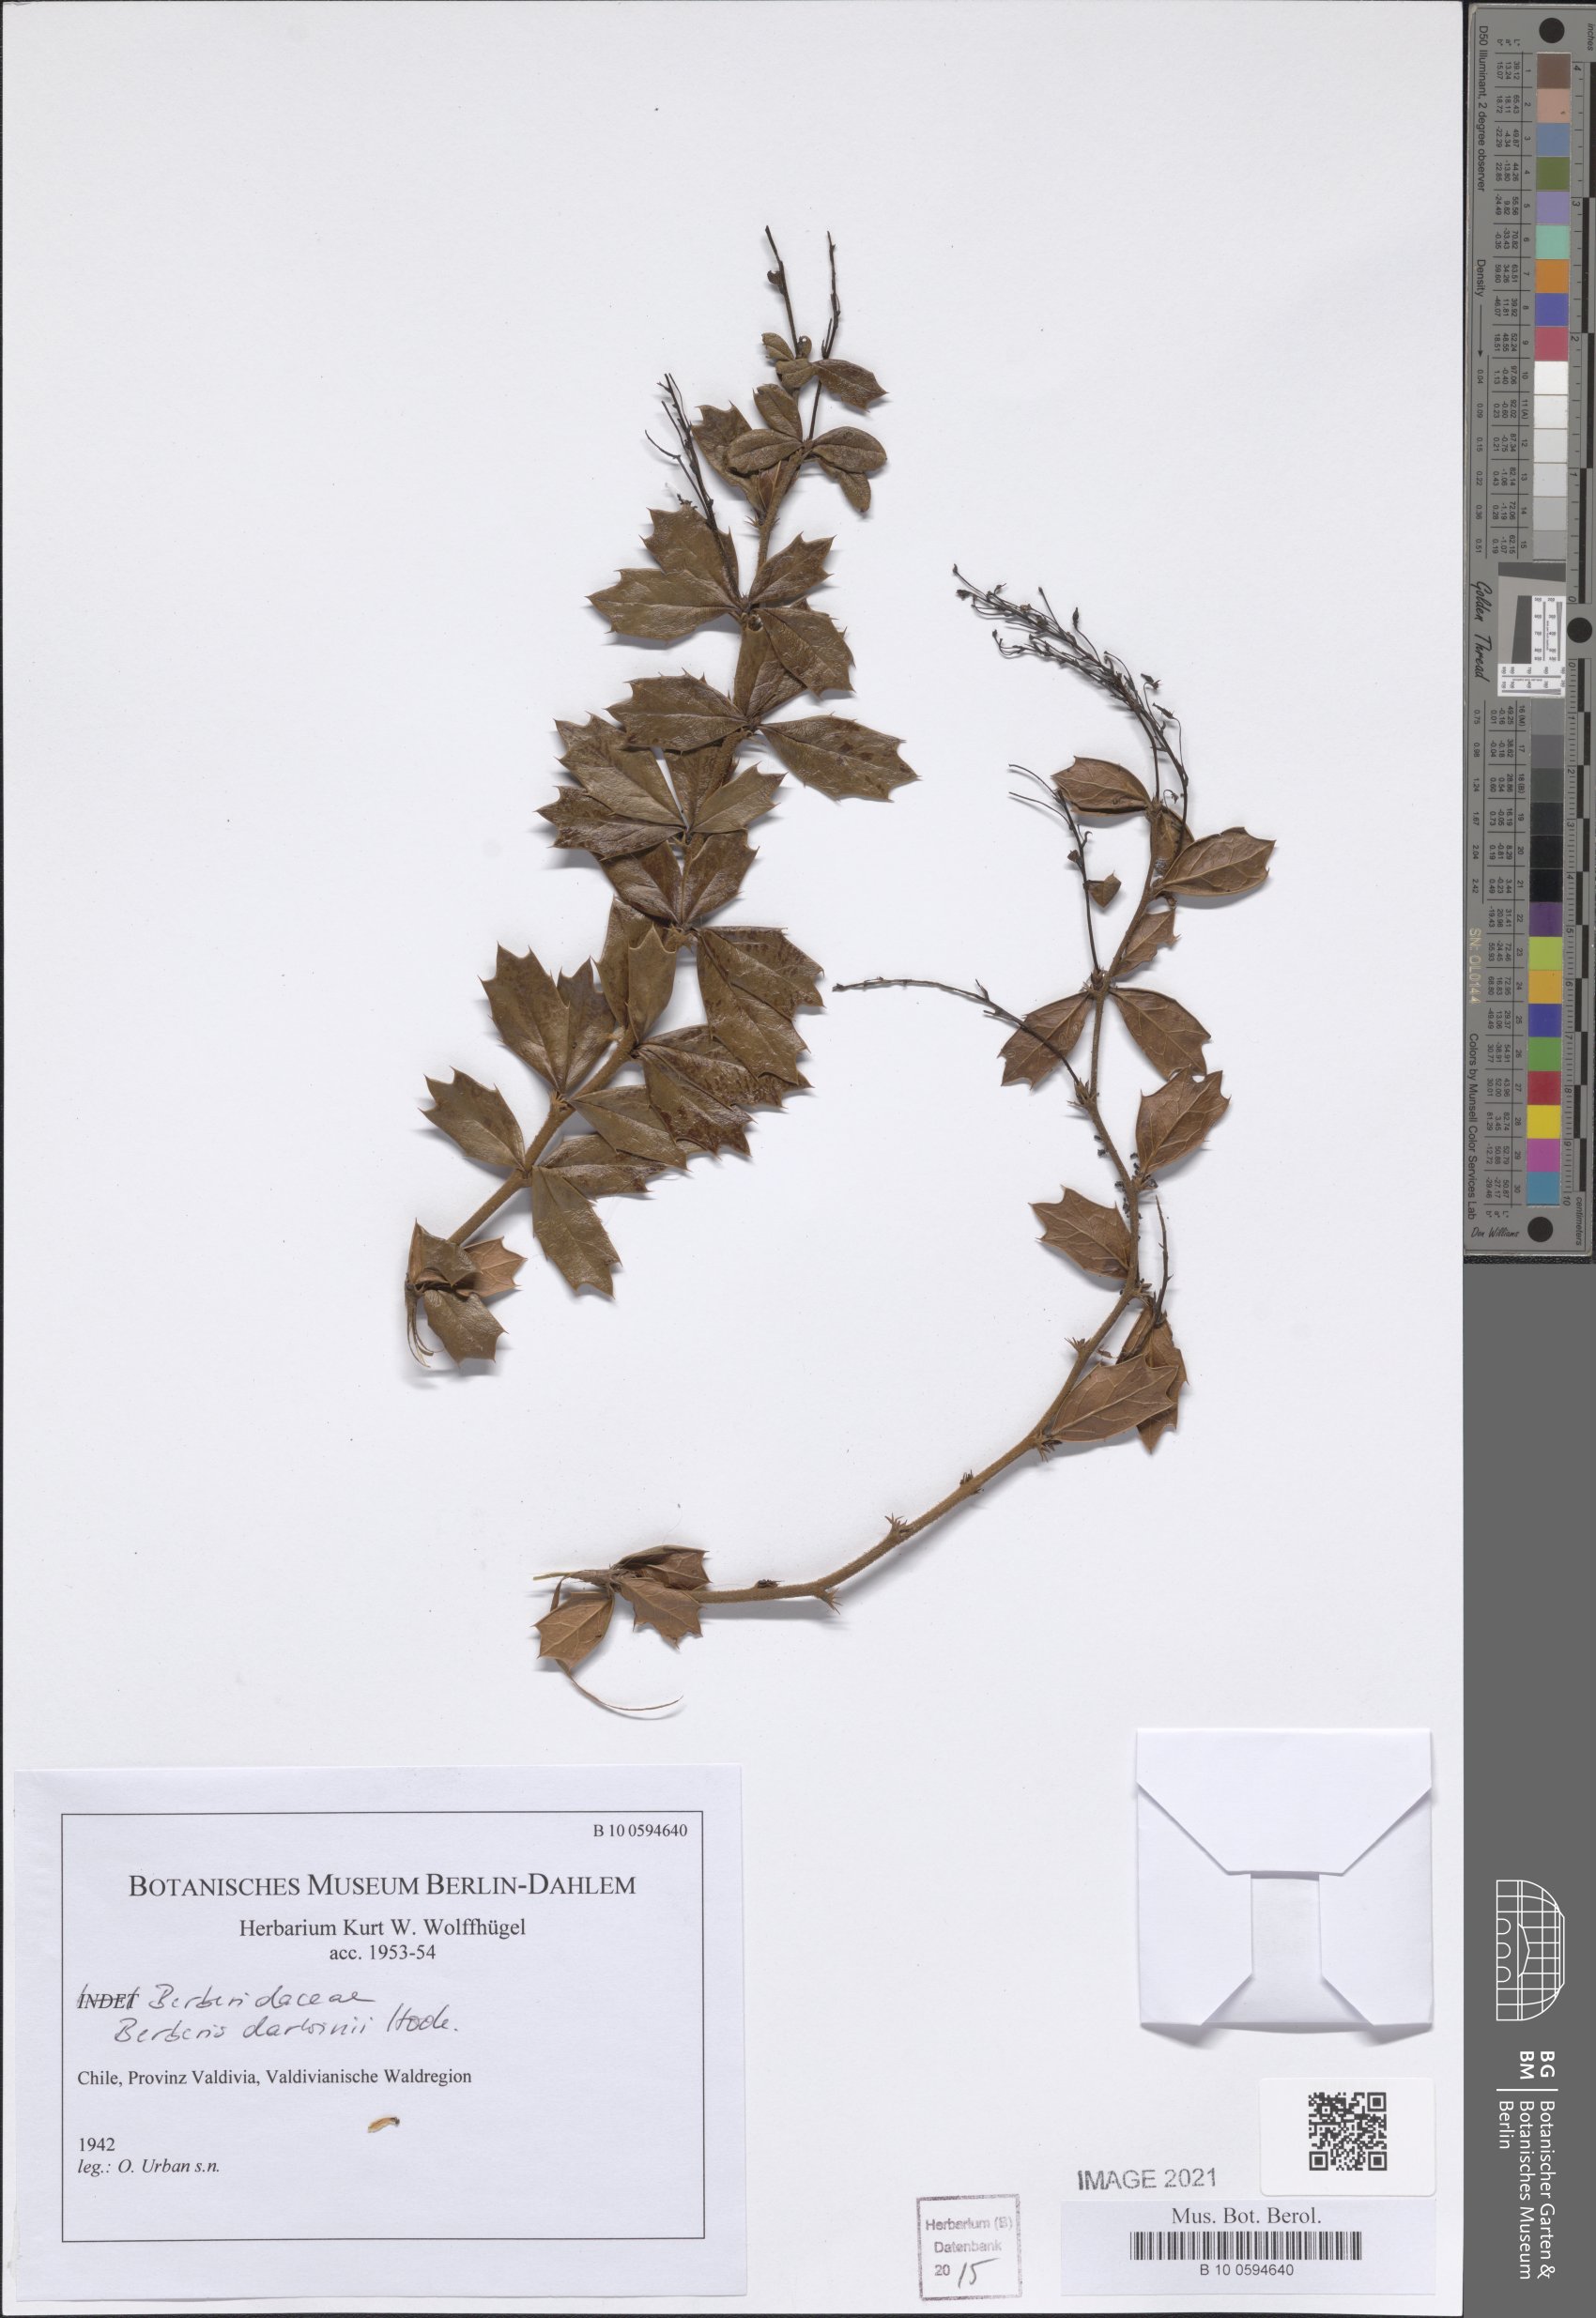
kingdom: Plantae
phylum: Tracheophyta
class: Magnoliopsida
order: Ranunculales
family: Berberidaceae
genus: Berberis
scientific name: Berberis darwinii
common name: Darwin's barberry
